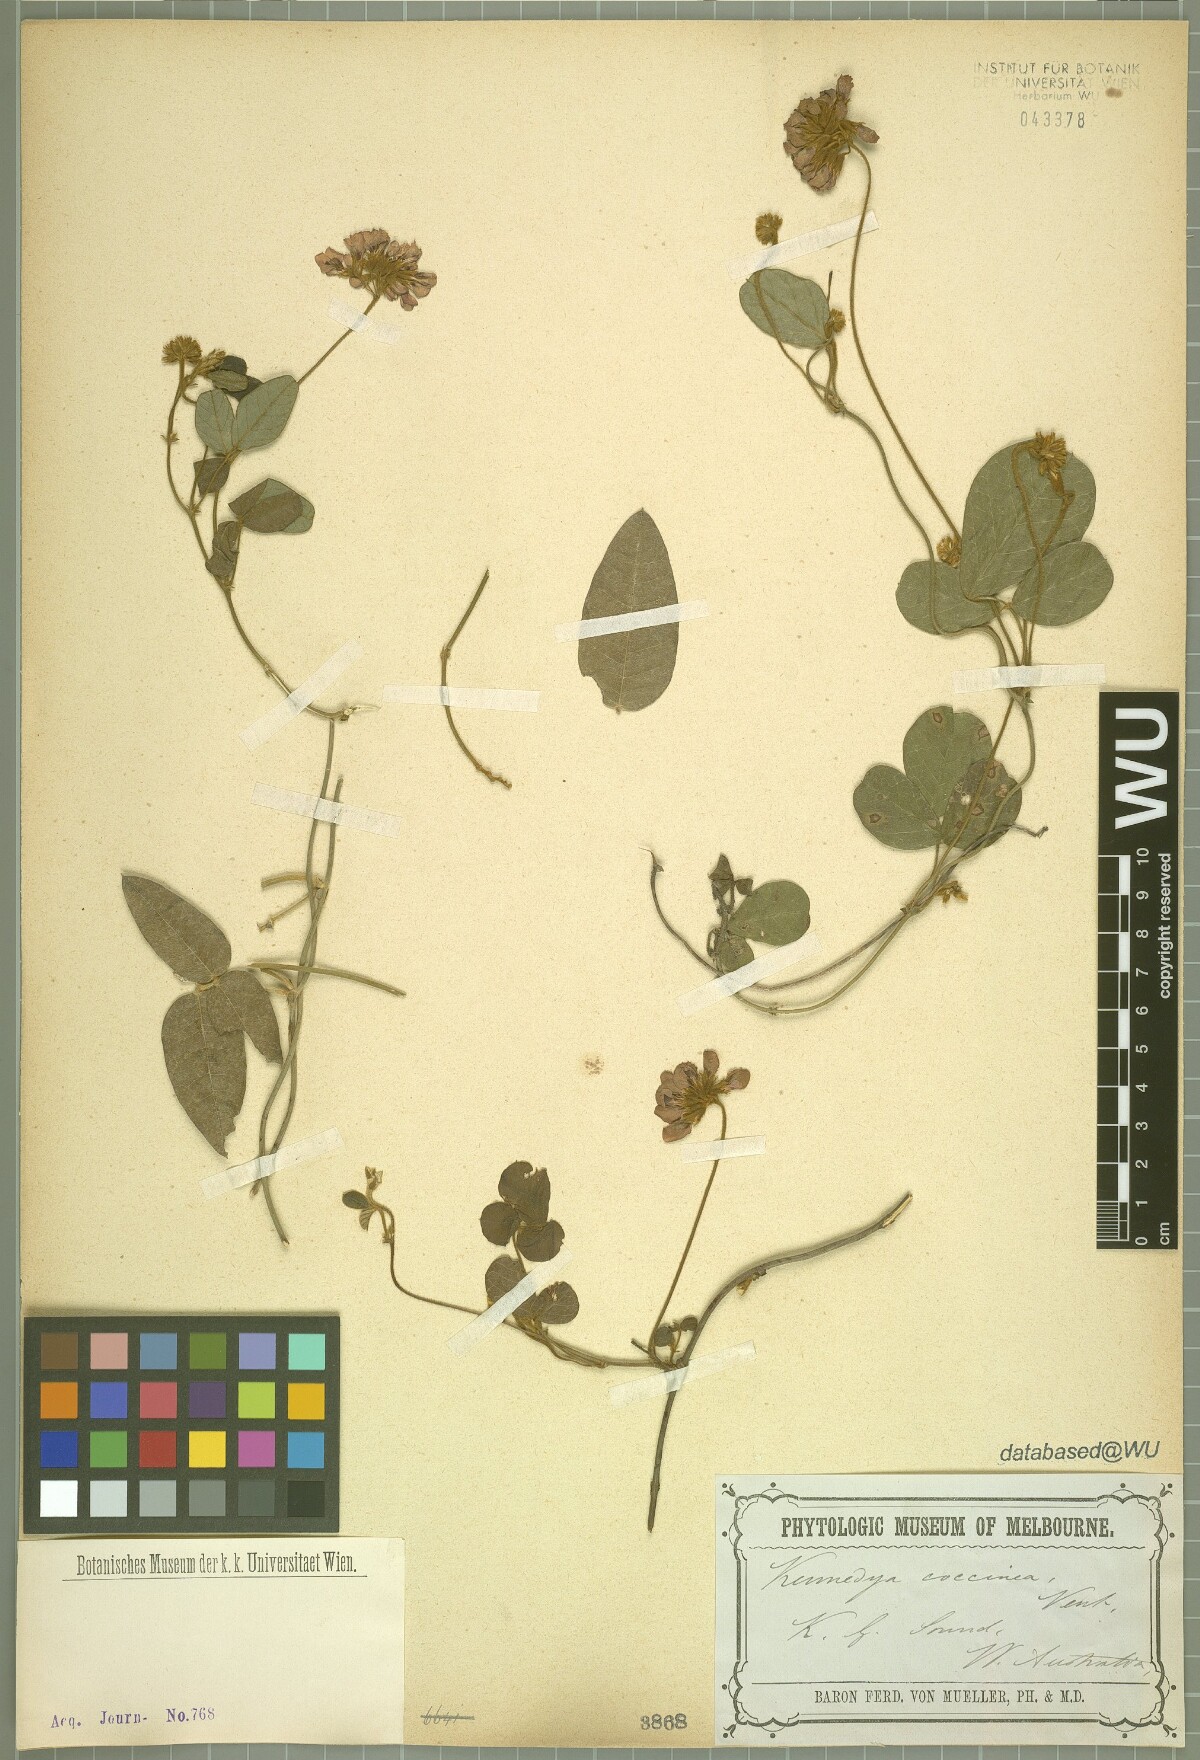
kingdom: Plantae
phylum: Tracheophyta
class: Magnoliopsida
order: Fabales
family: Fabaceae
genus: Kennedia
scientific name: Kennedia coccinea
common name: Coralvine
